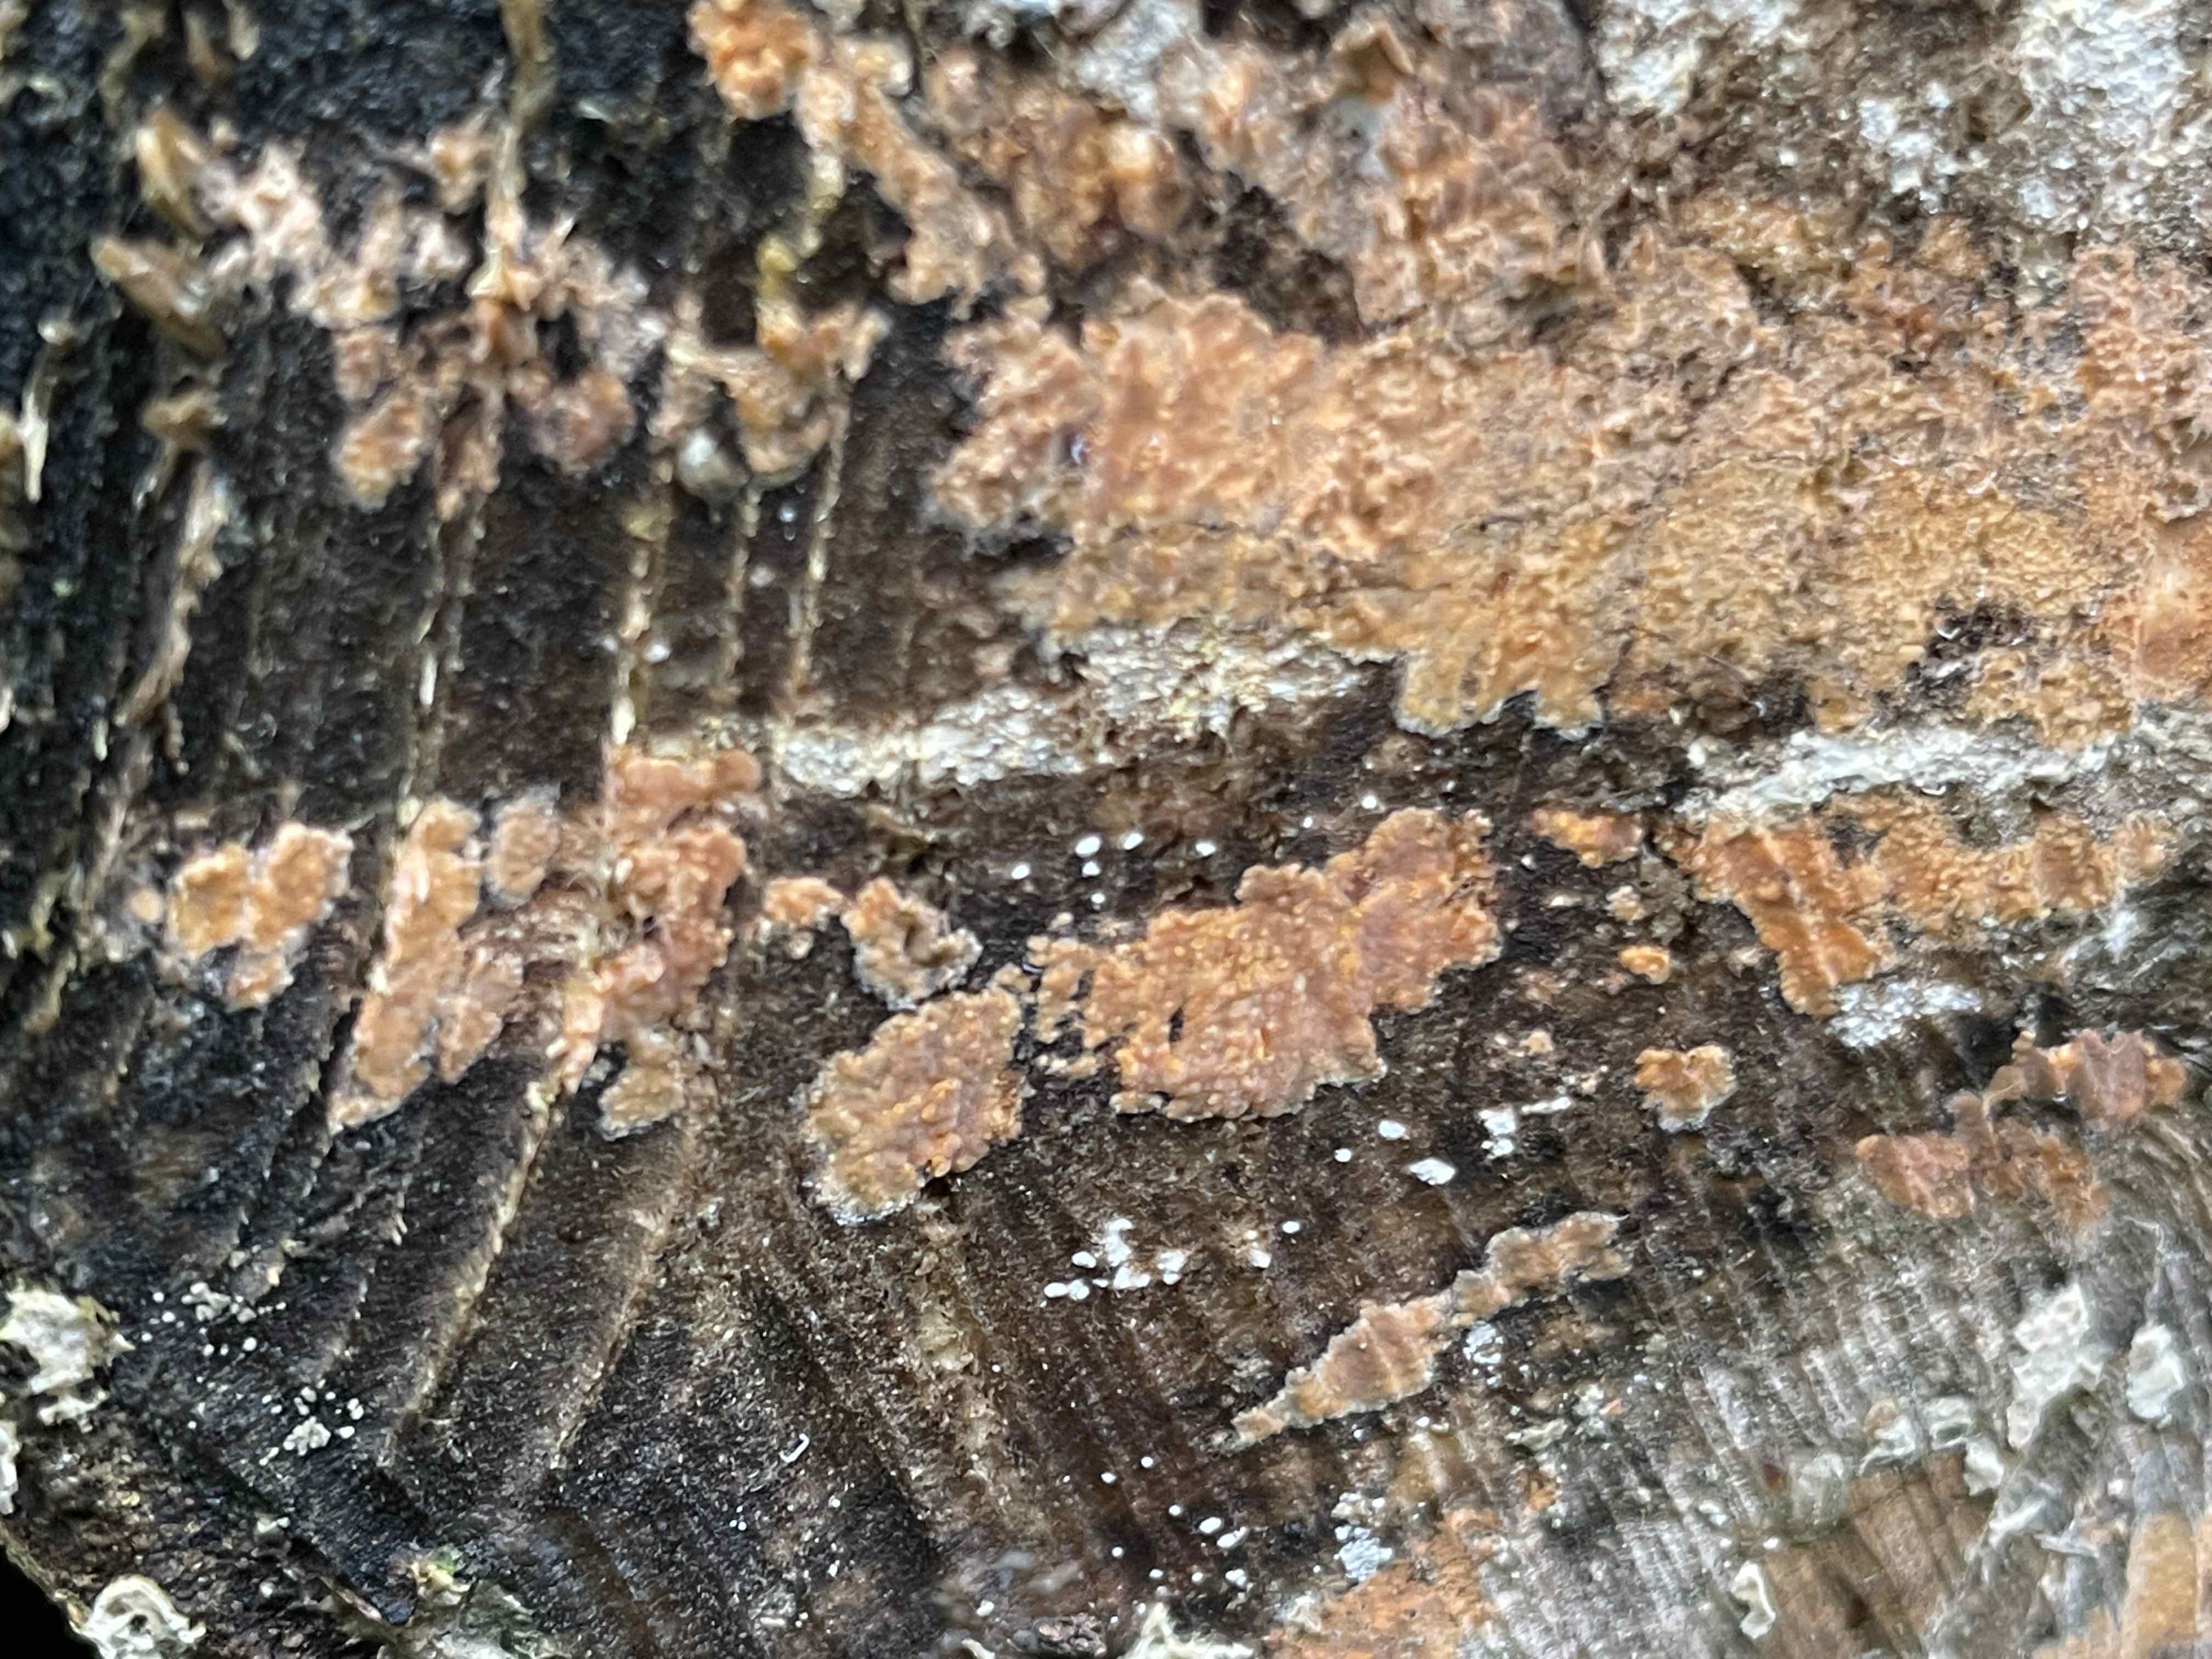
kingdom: Fungi
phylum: Basidiomycota
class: Agaricomycetes
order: Russulales
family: Peniophoraceae
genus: Peniophora
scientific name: Peniophora incarnata
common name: laksefarvet voksskind
